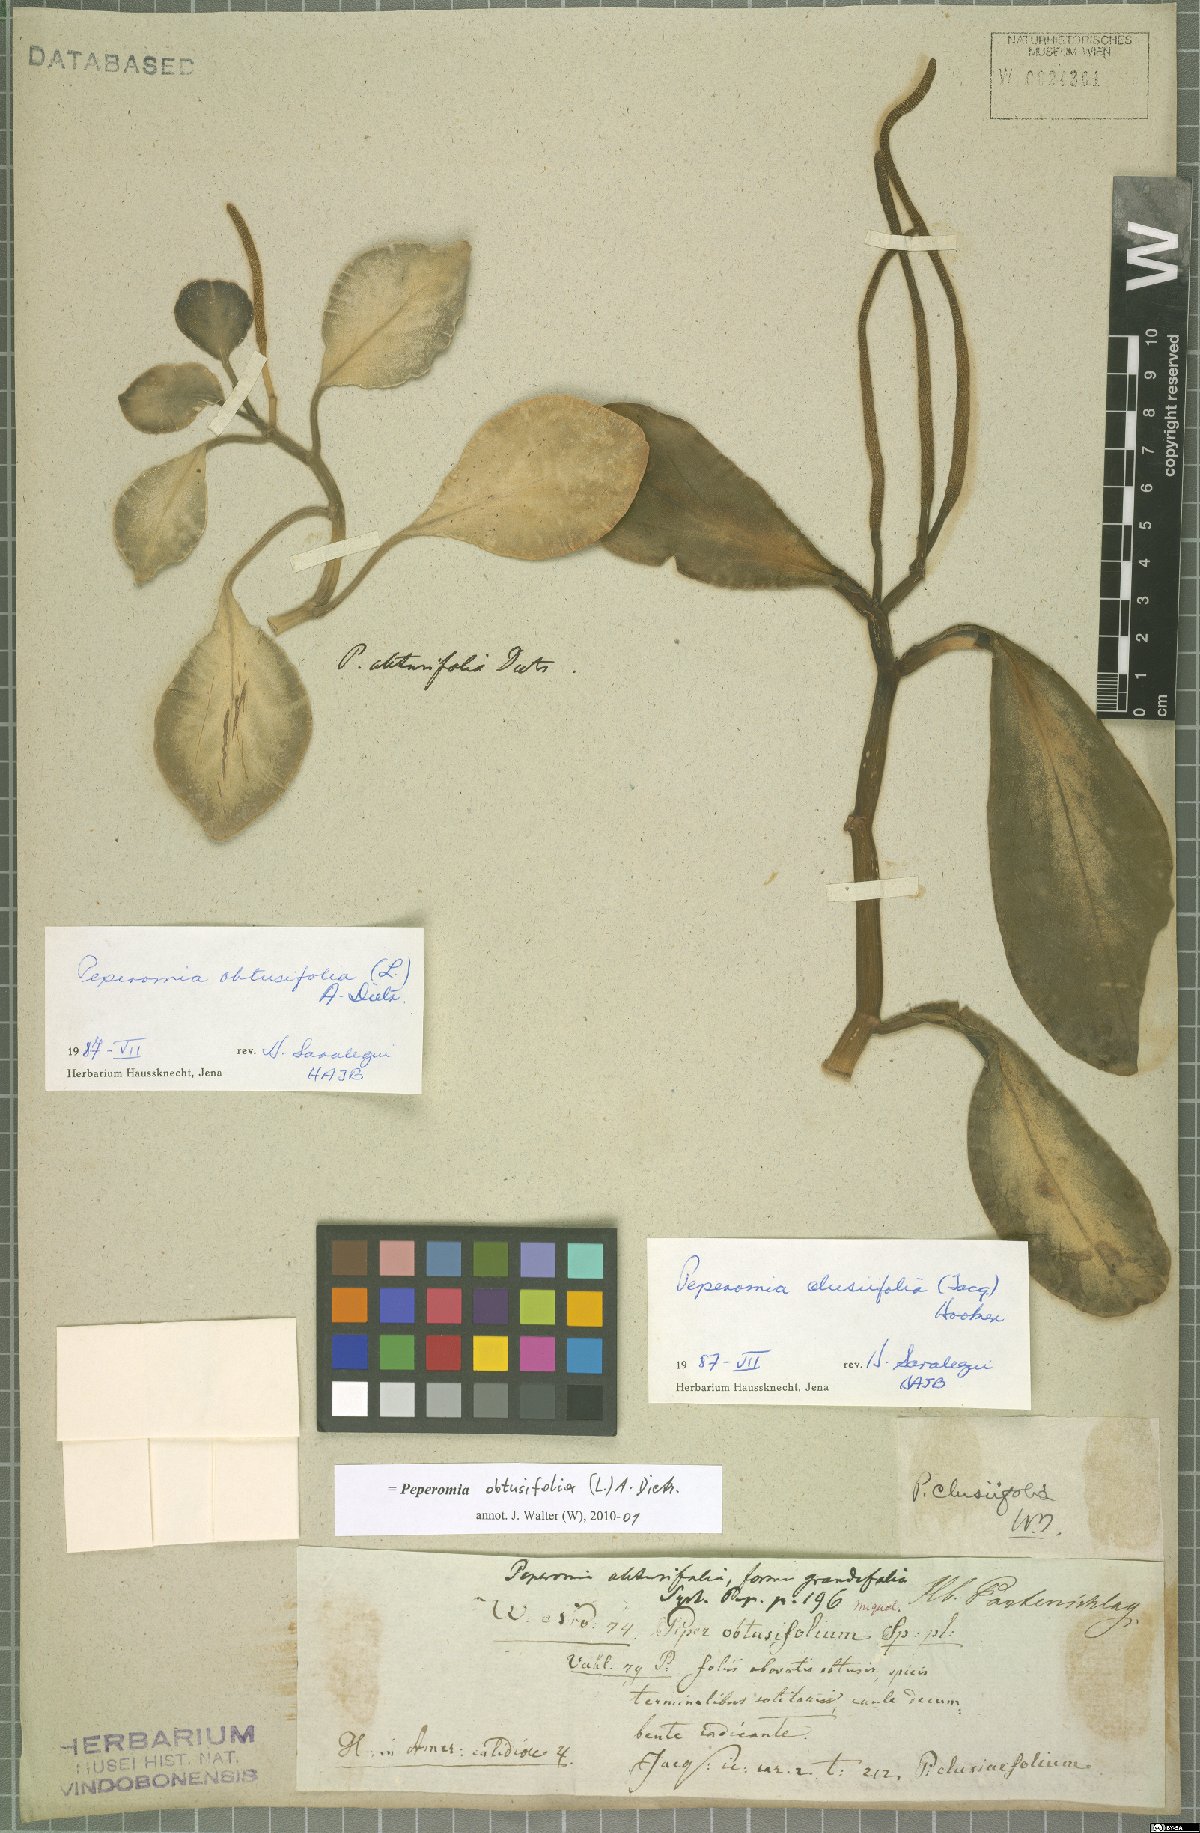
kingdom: Plantae
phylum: Tracheophyta
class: Magnoliopsida
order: Piperales
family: Piperaceae
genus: Peperomia
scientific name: Peperomia obtusifolia
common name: Baby rubberplant
